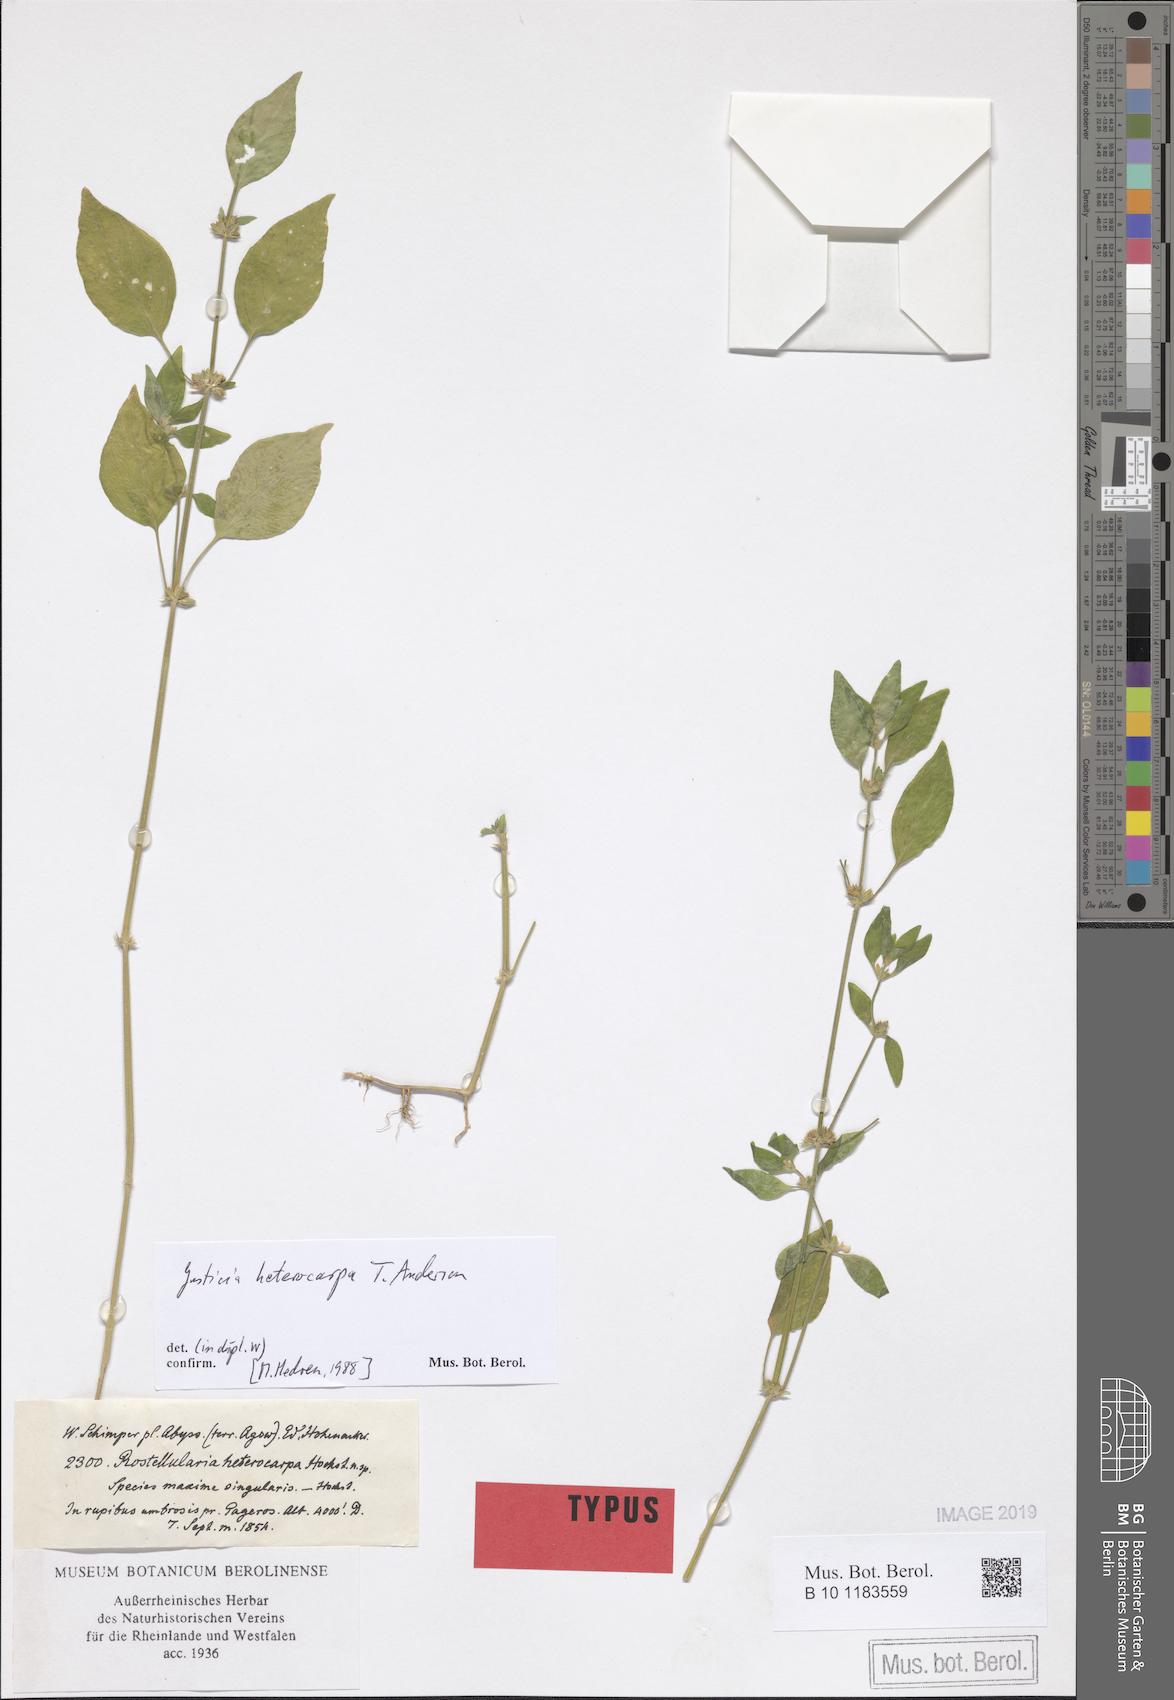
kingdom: Plantae
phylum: Tracheophyta
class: Magnoliopsida
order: Lamiales
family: Acanthaceae
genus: Justicia
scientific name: Justicia heterocarpa
